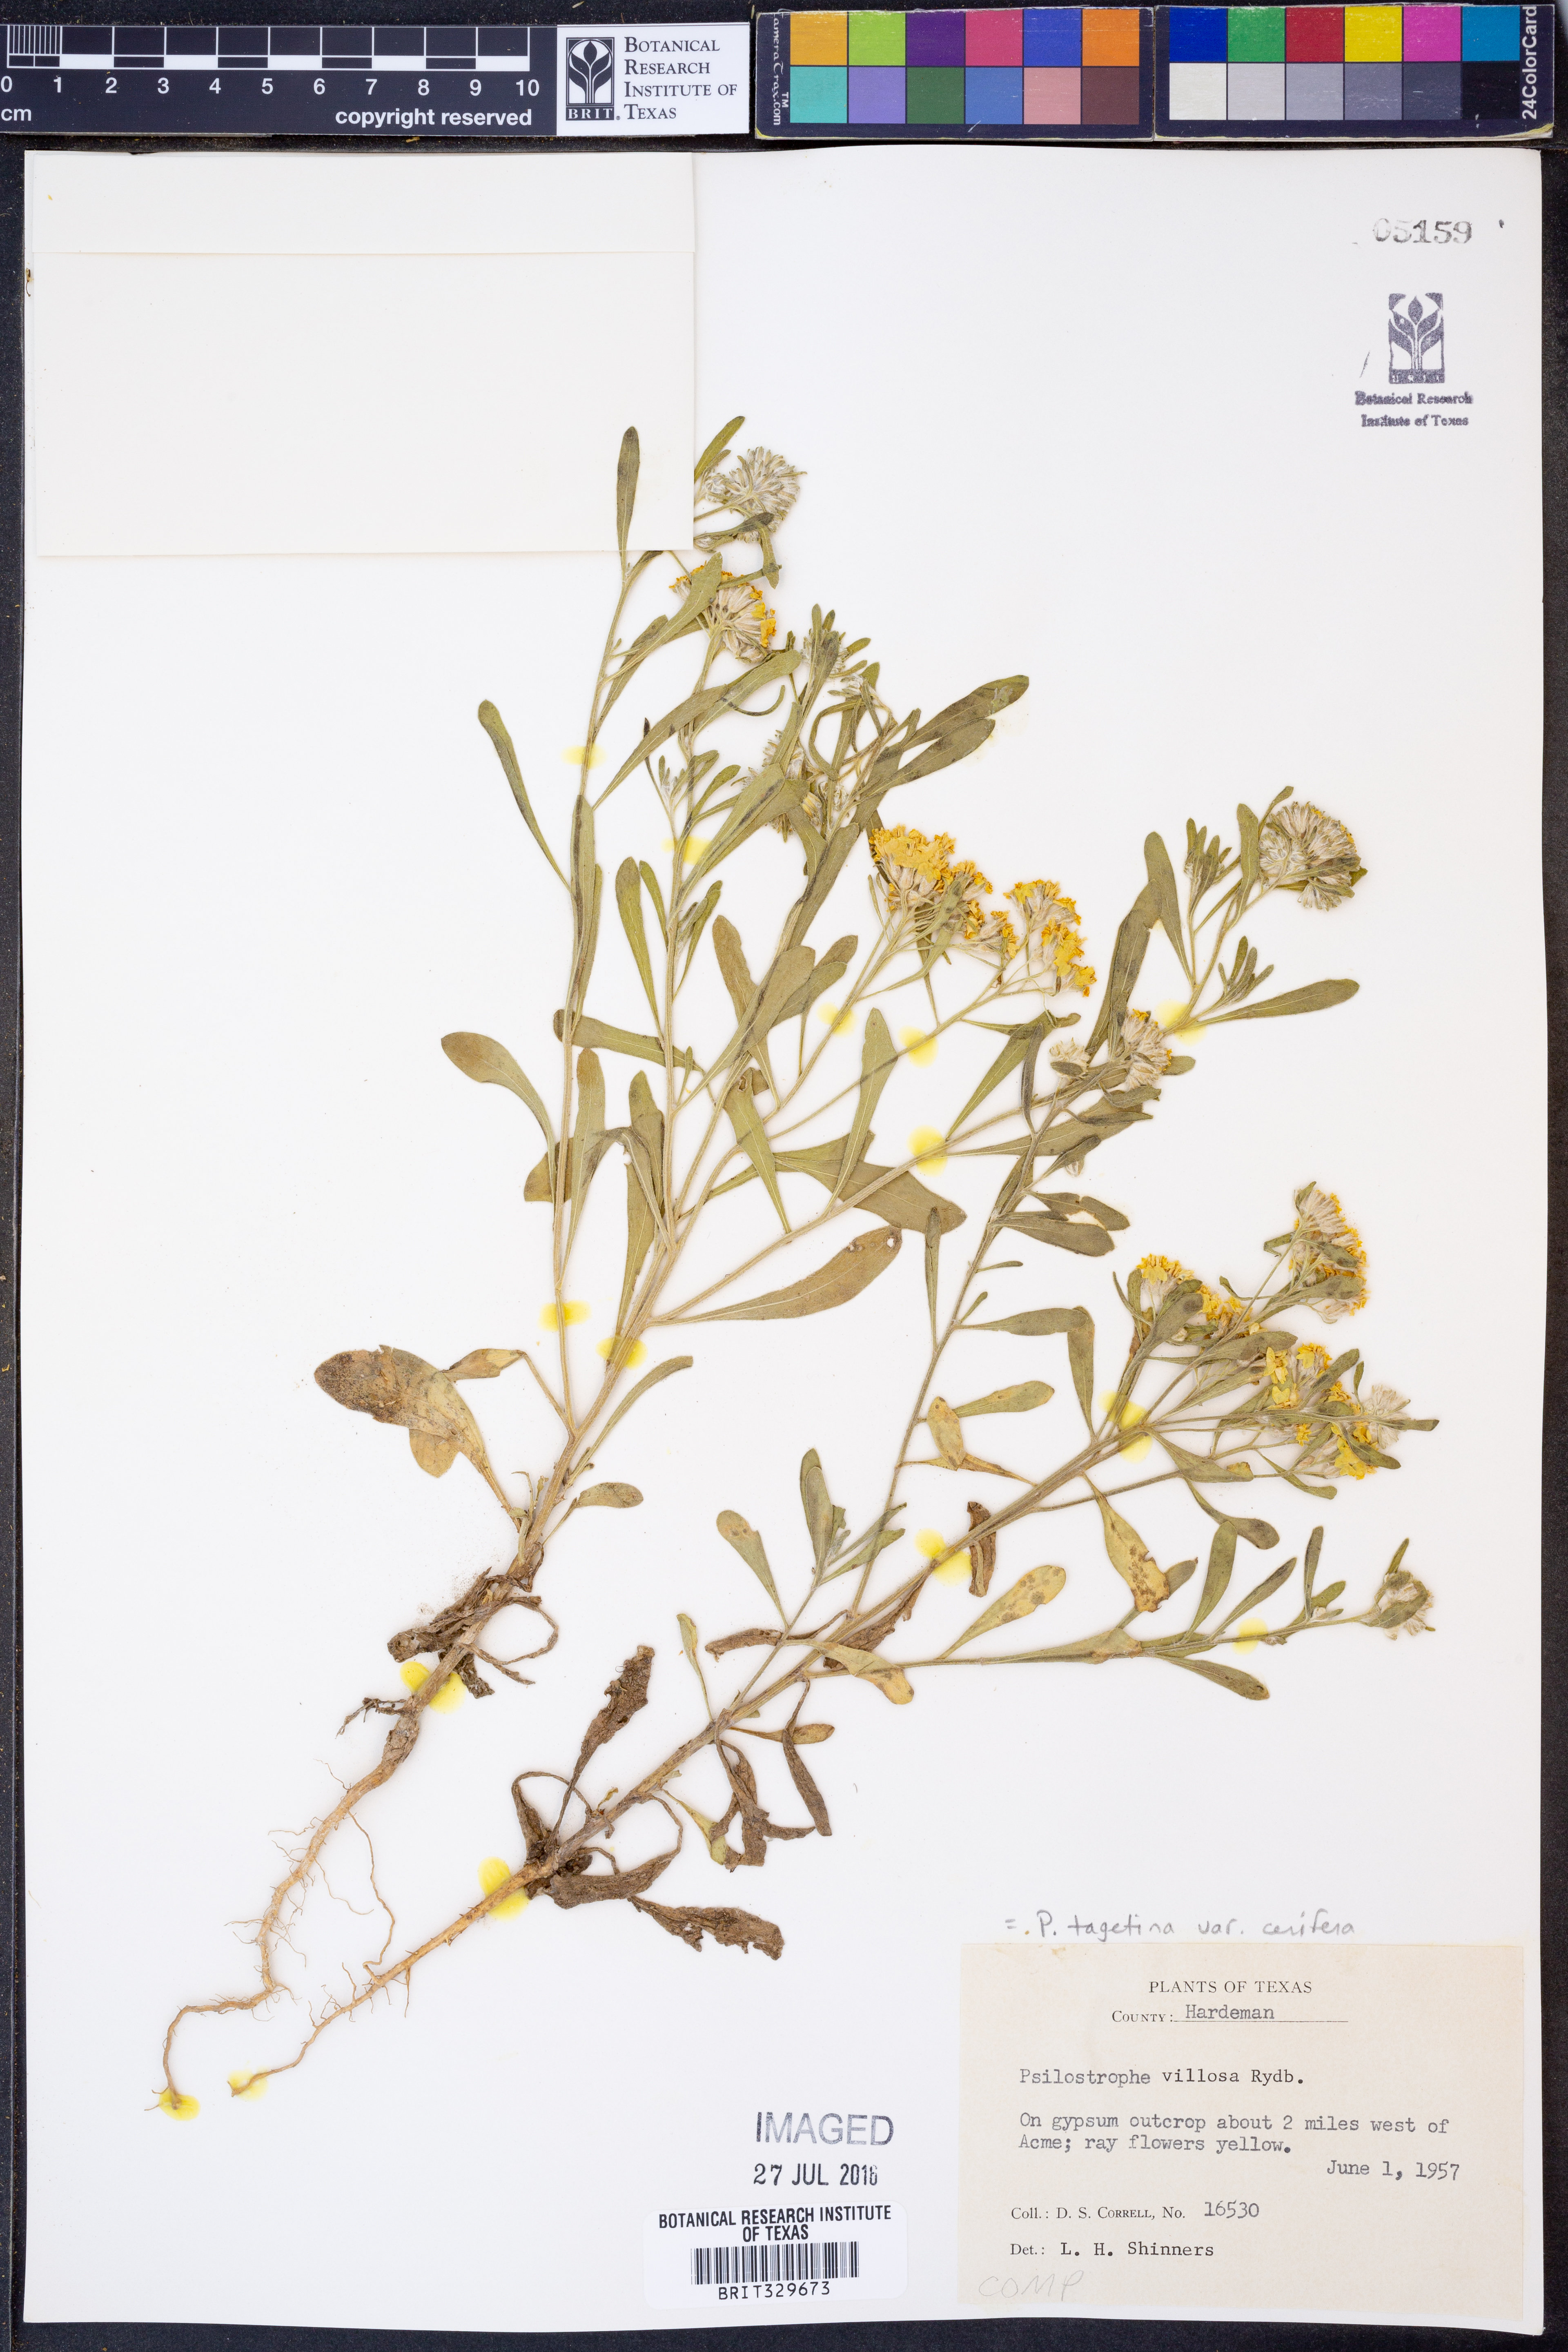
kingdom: Plantae
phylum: Tracheophyta
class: Magnoliopsida
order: Asterales
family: Asteraceae
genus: Psilostrophe
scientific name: Psilostrophe villosa
